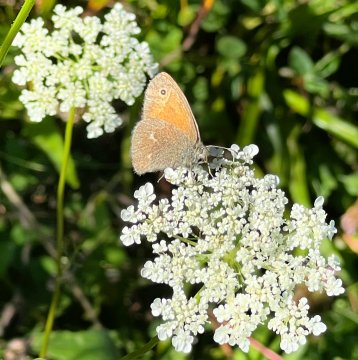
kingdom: Animalia
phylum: Arthropoda
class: Insecta
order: Lepidoptera
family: Nymphalidae
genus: Coenonympha
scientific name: Coenonympha tullia
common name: Large Heath
